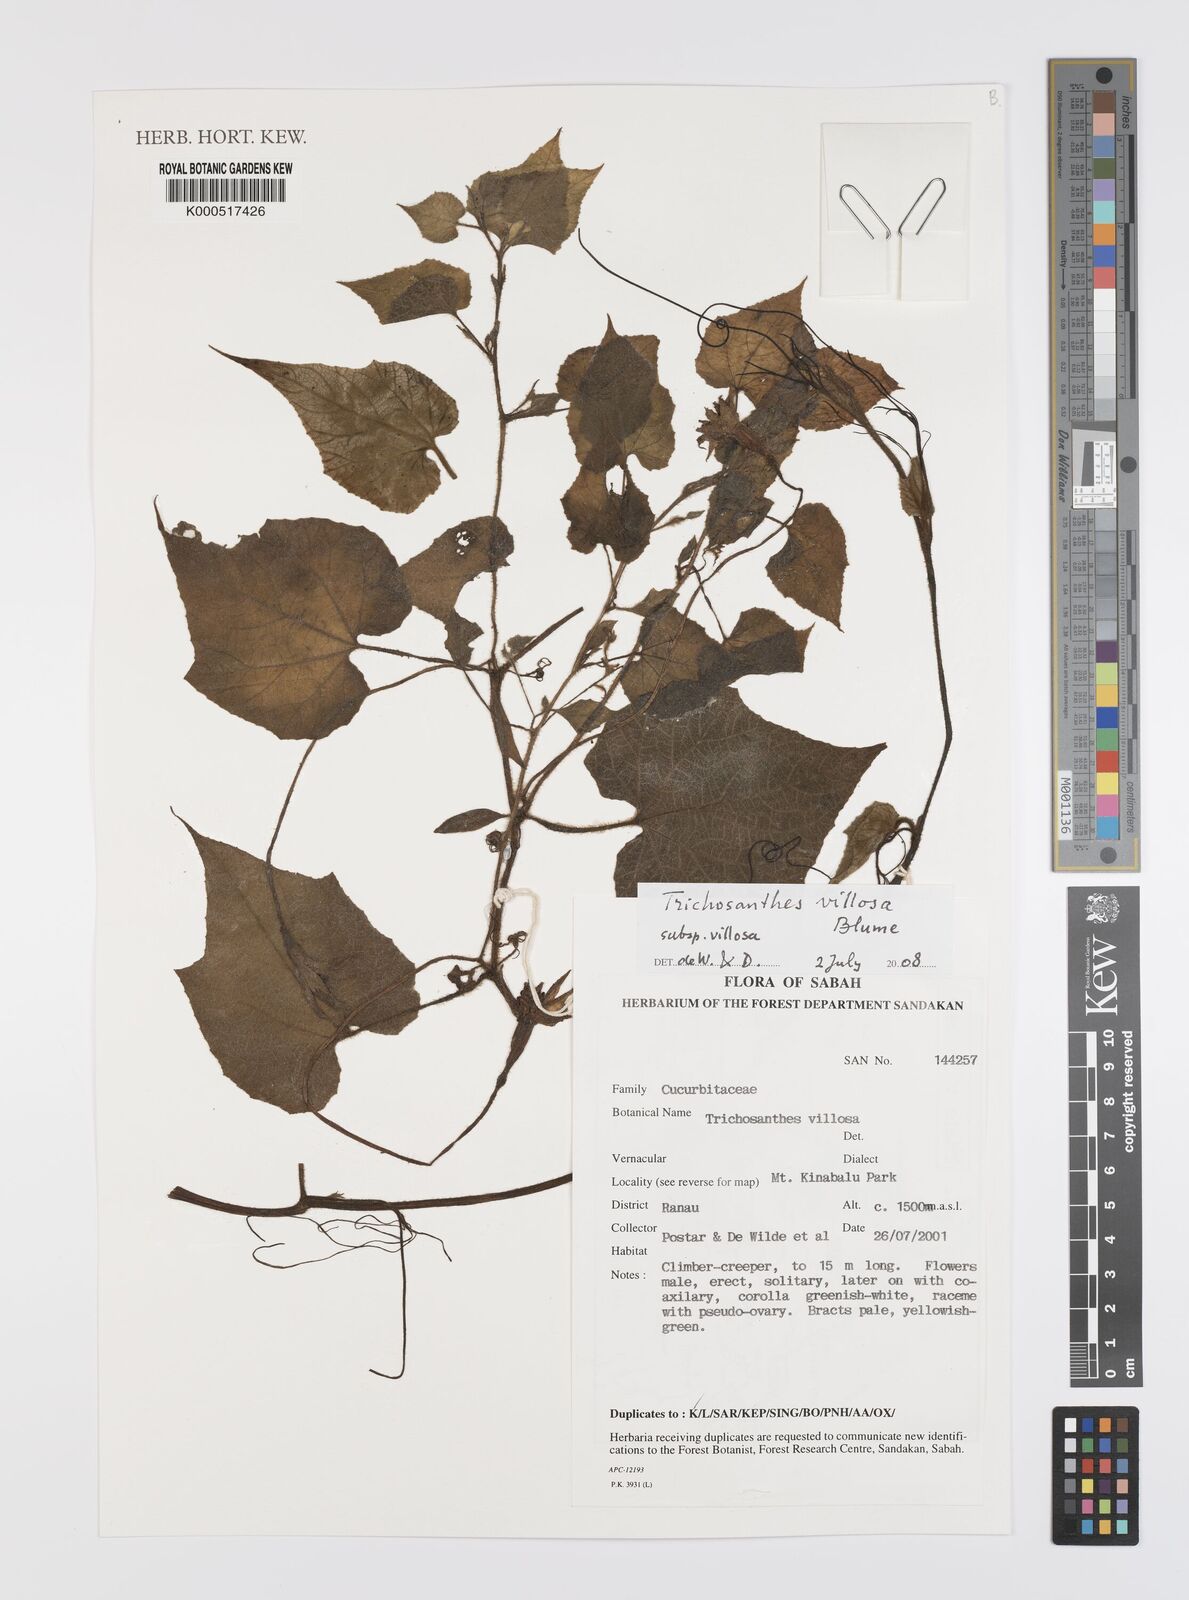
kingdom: Plantae
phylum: Tracheophyta
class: Magnoliopsida
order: Cucurbitales
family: Cucurbitaceae
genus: Trichosanthes
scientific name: Trichosanthes villosa
